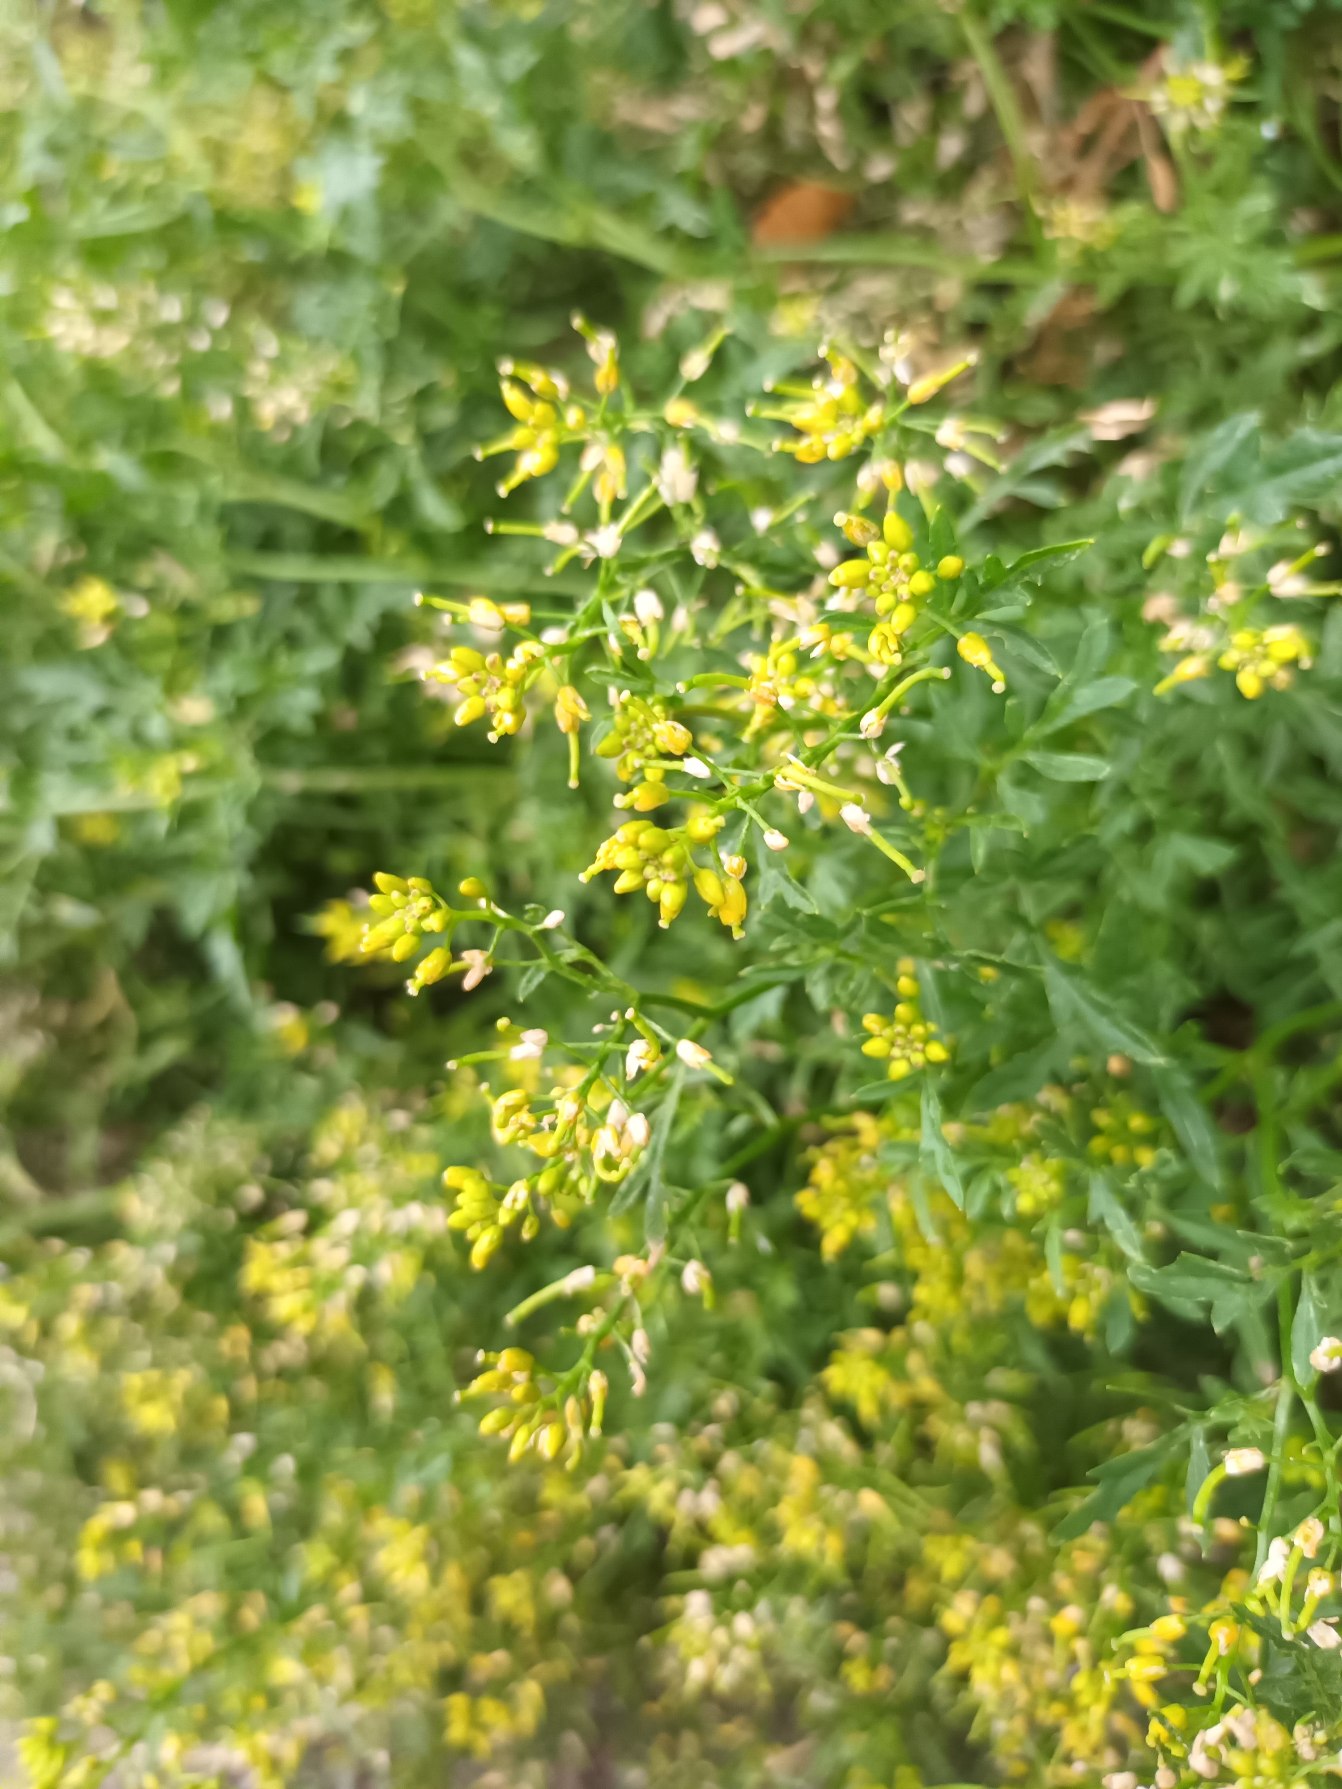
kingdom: Plantae
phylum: Tracheophyta
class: Magnoliopsida
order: Brassicales
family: Brassicaceae
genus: Rorippa
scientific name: Rorippa sylvestris
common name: Vej-guldkarse
